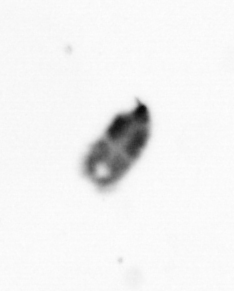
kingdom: Animalia
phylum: Arthropoda
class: Copepoda
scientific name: Copepoda
